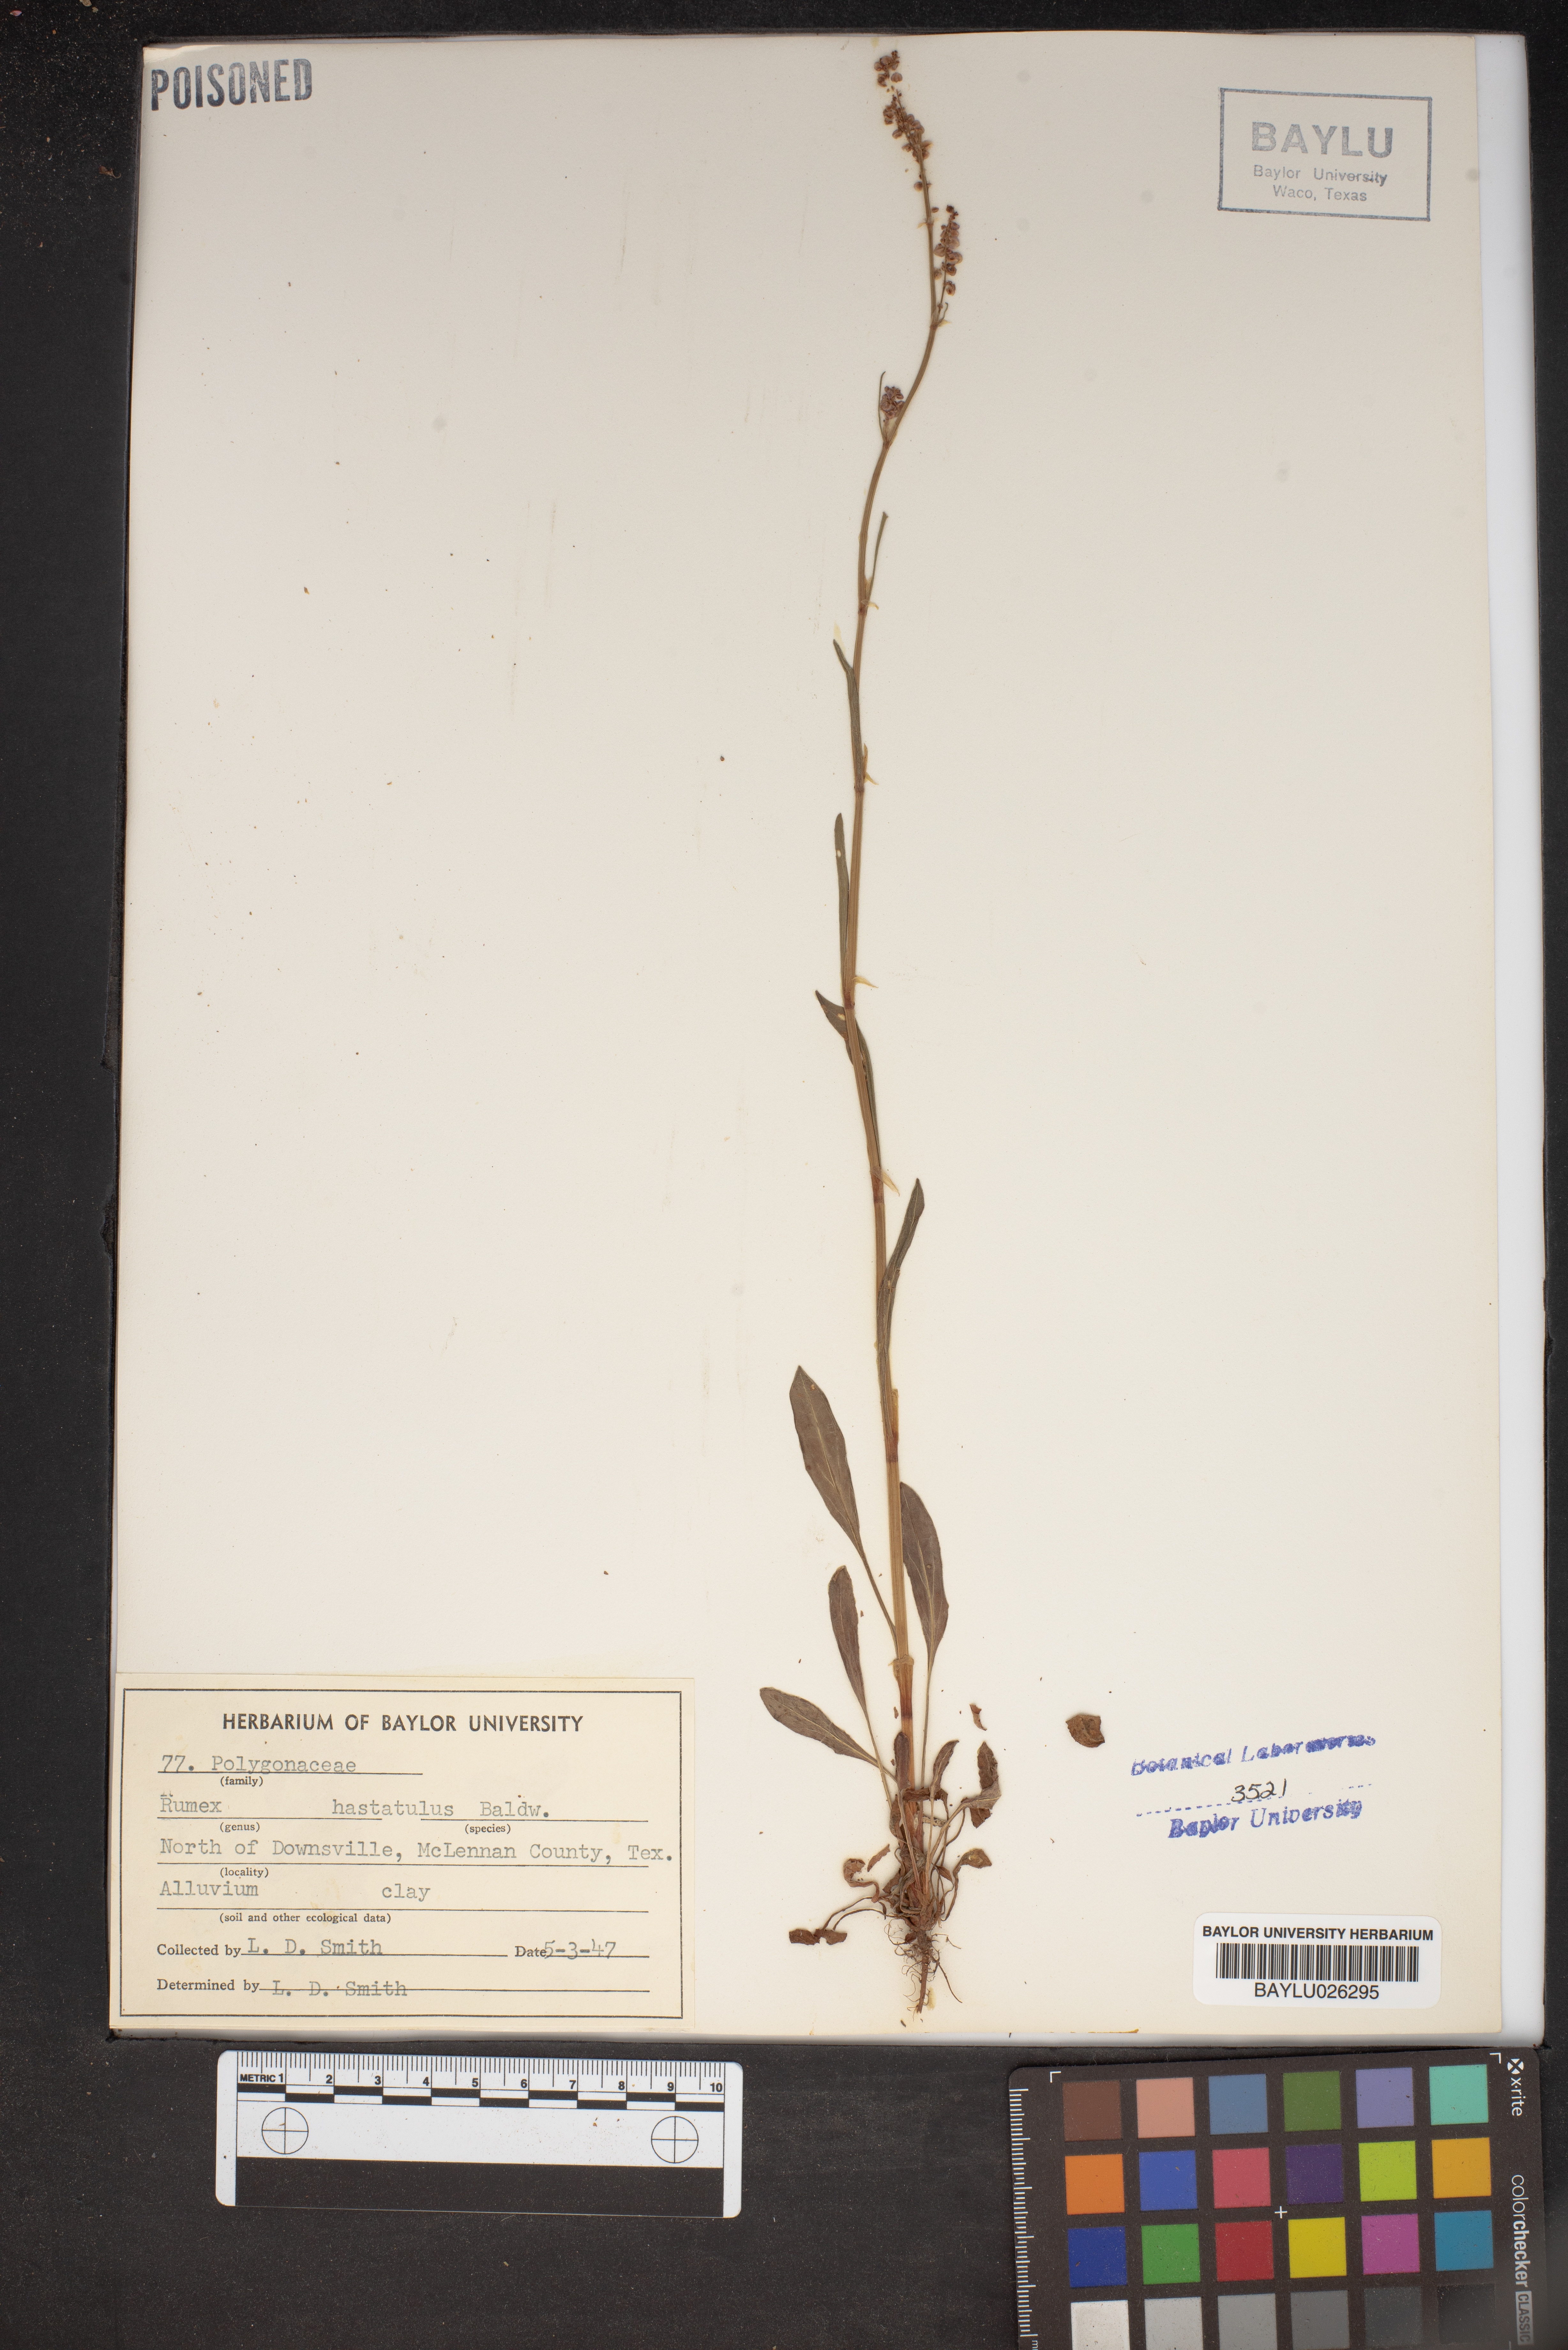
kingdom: Plantae
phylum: Tracheophyta
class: Magnoliopsida
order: Caryophyllales
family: Polygonaceae
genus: Rumex
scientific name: Rumex hastatulus
